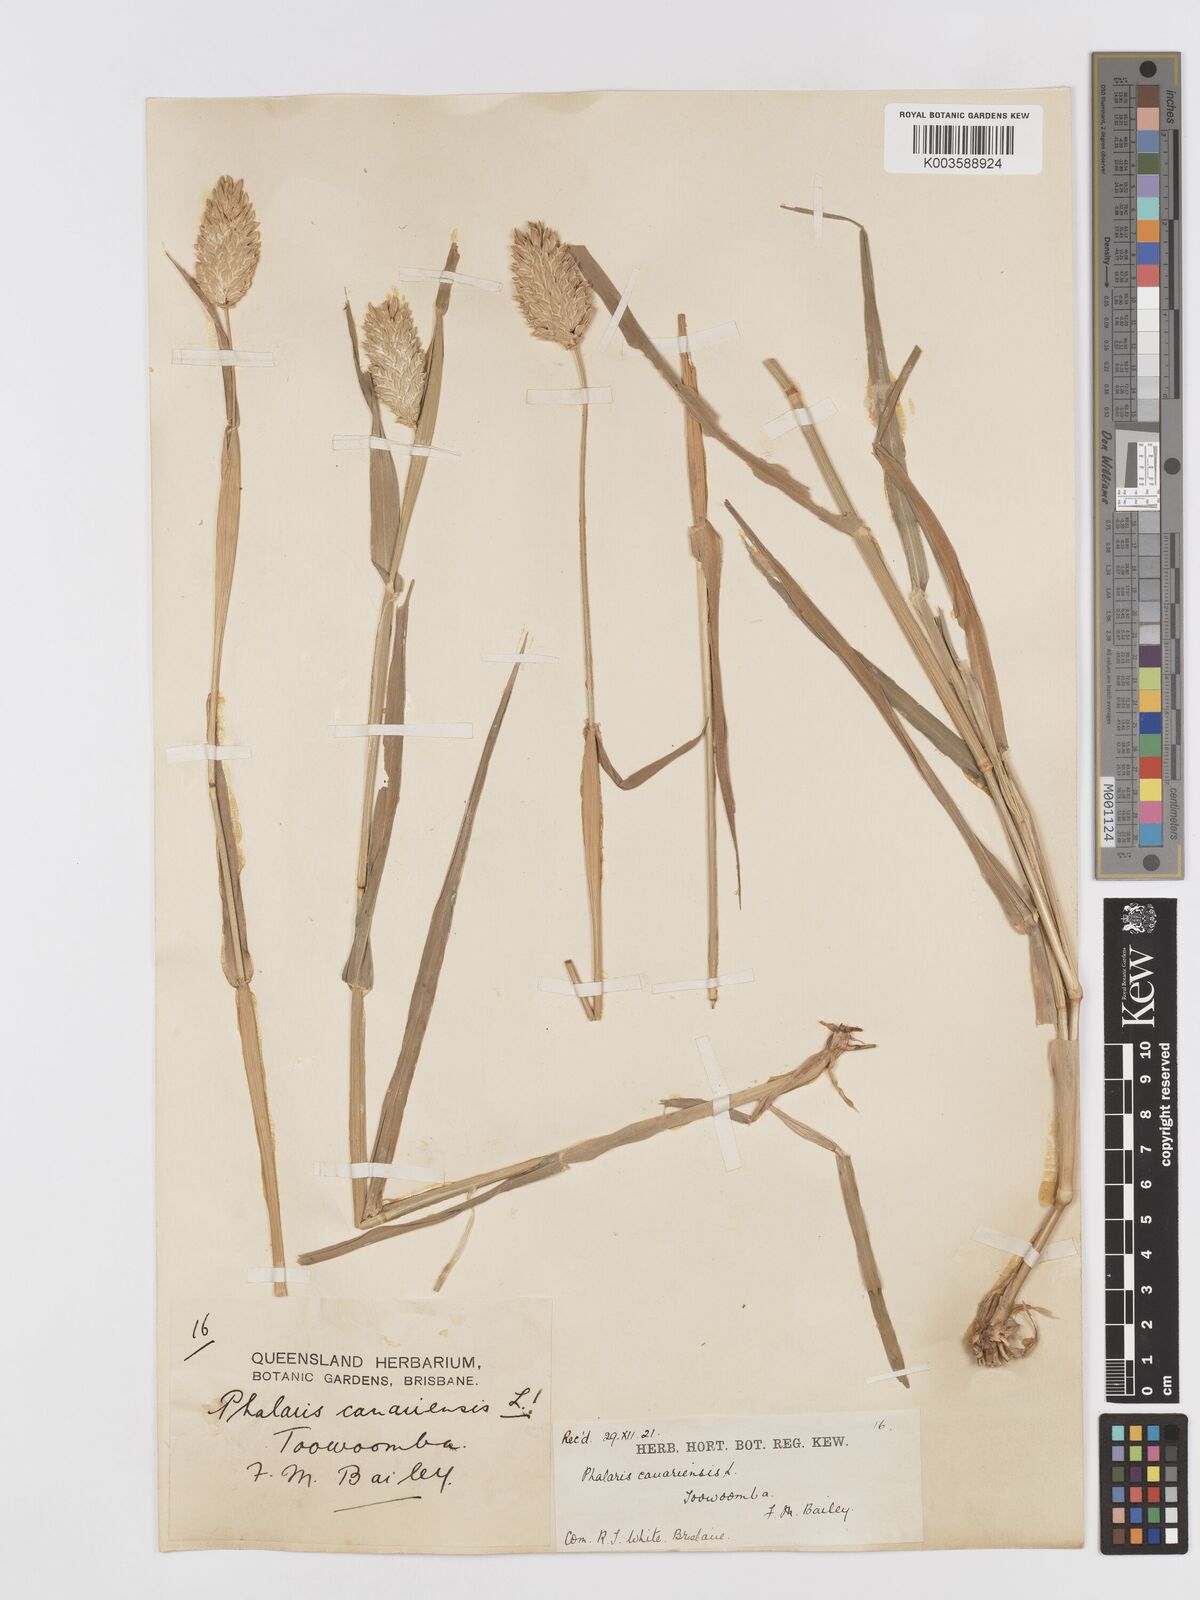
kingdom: Plantae
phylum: Tracheophyta
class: Liliopsida
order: Poales
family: Poaceae
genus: Phalaris
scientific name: Phalaris canariensis
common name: Annual canarygrass
